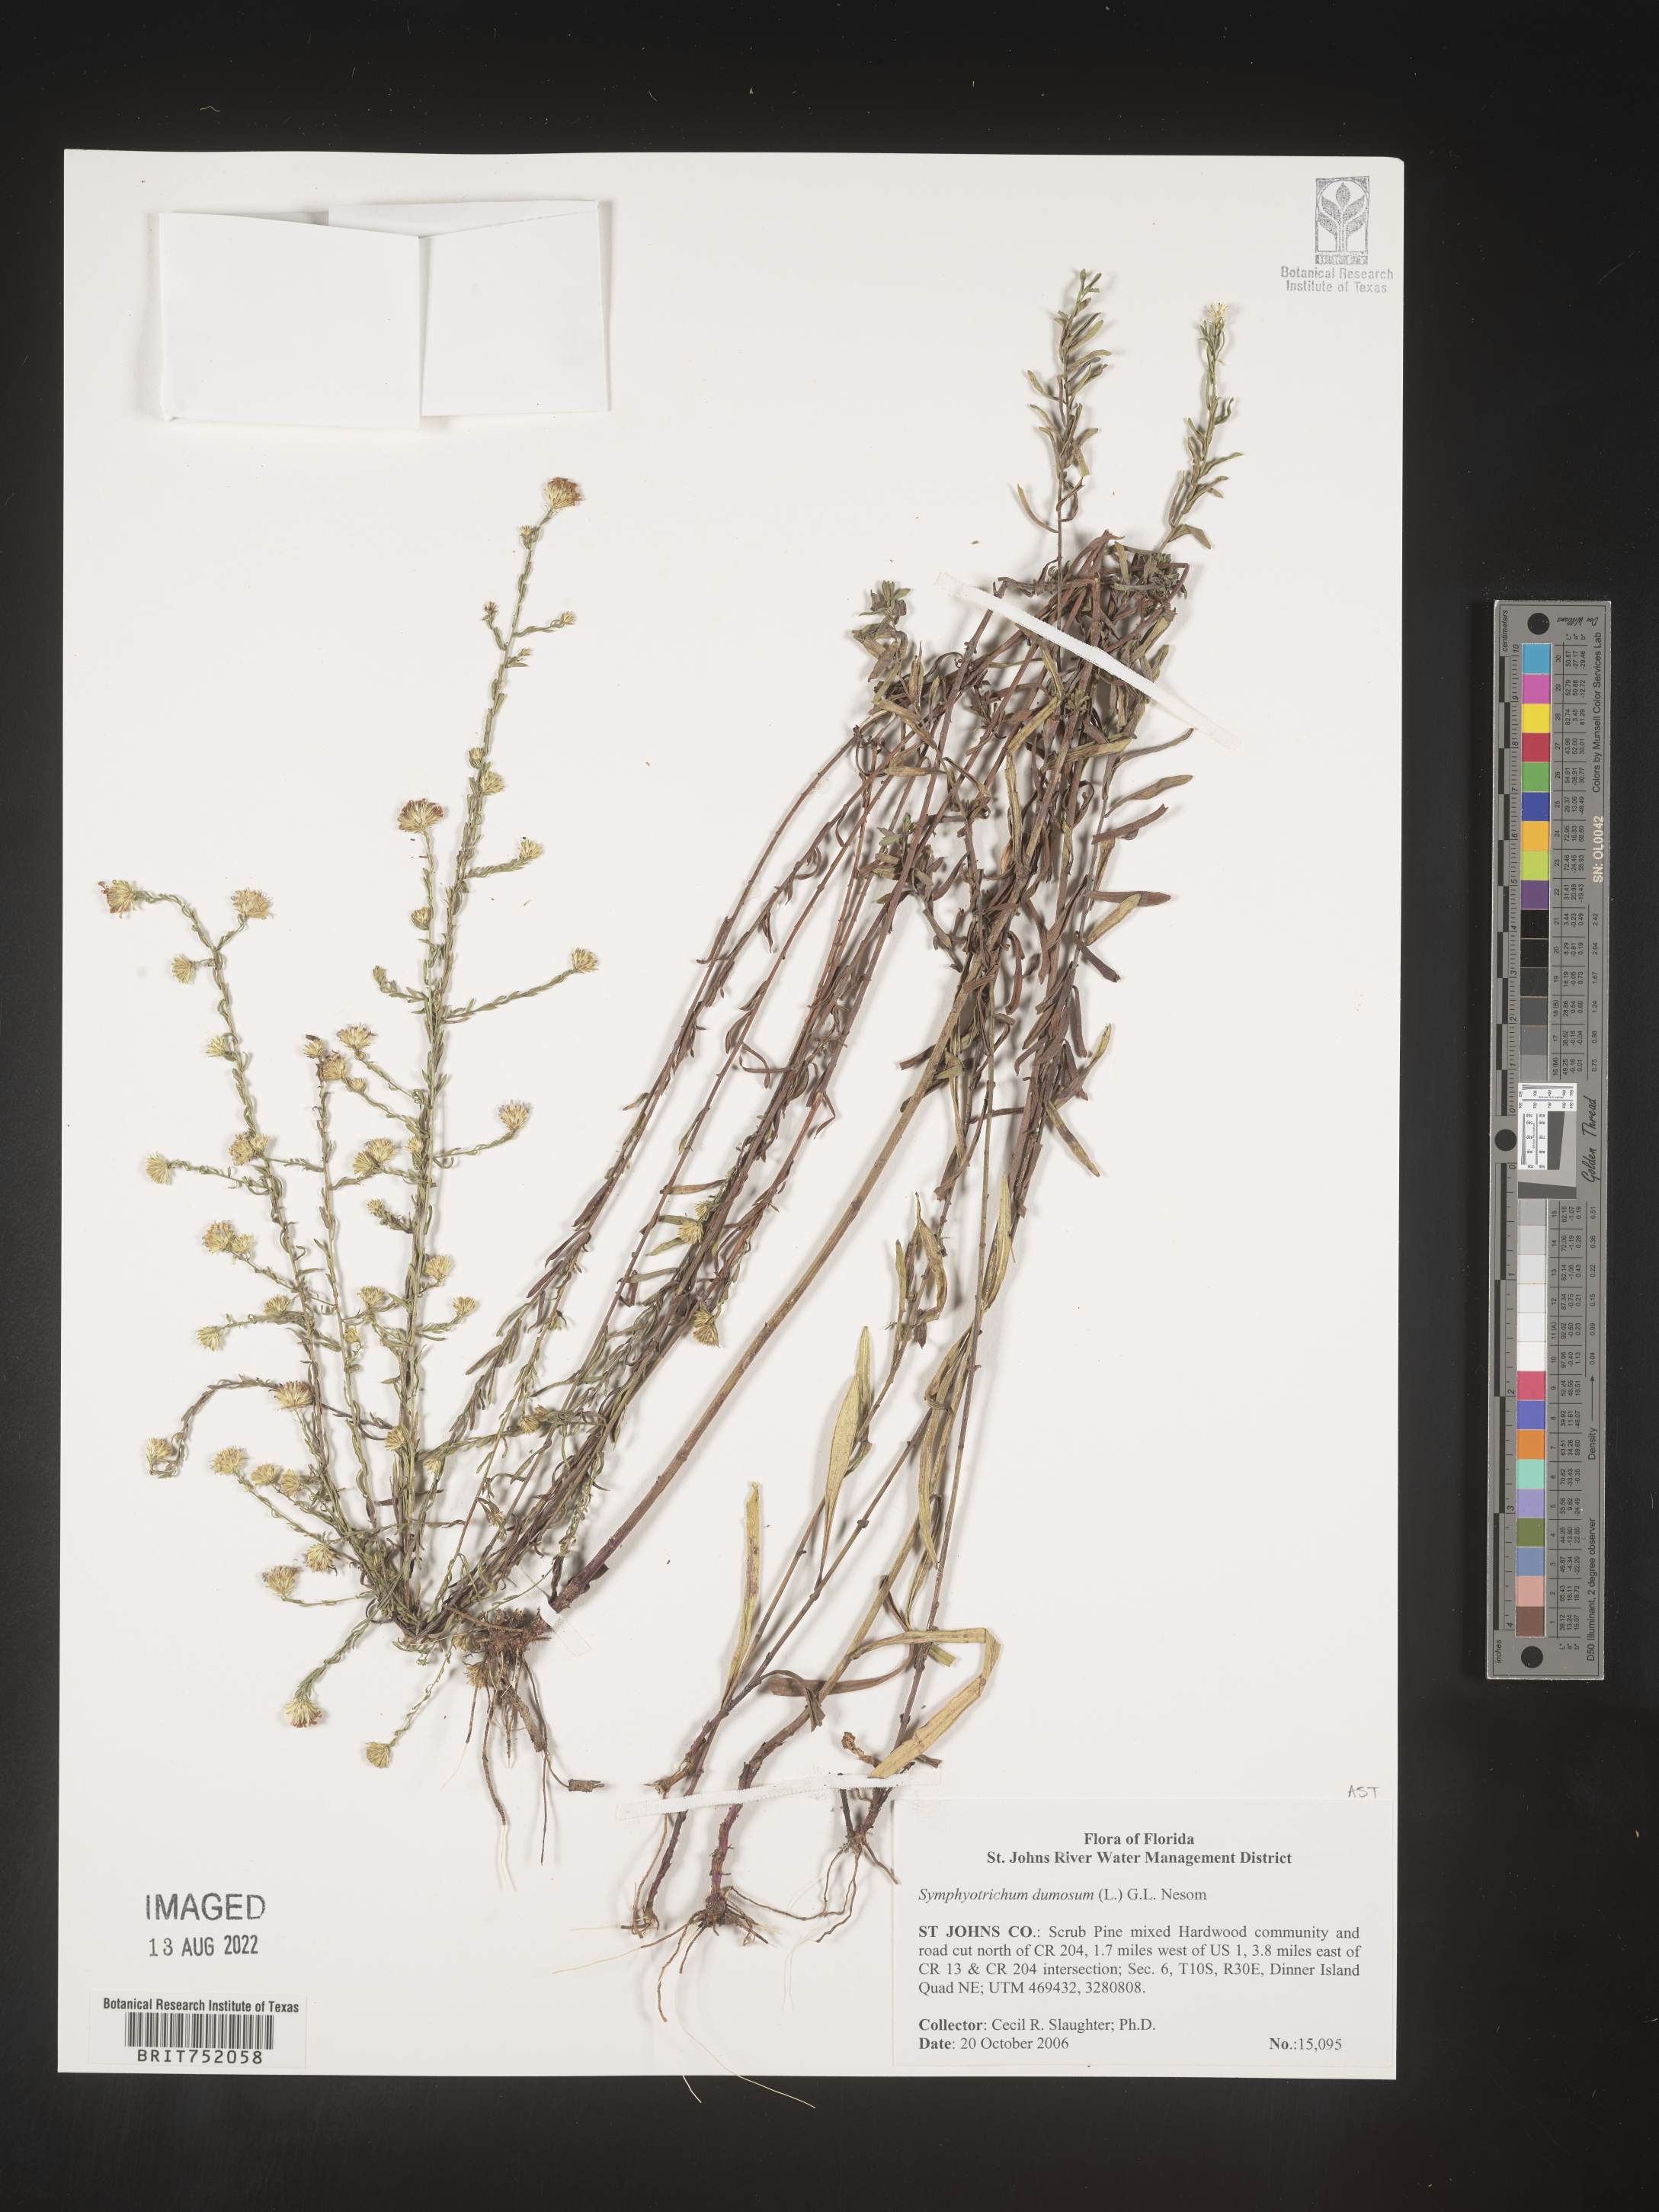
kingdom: Plantae
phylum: Tracheophyta
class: Magnoliopsida
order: Asterales
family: Asteraceae
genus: Symphyotrichum
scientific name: Symphyotrichum dumosum
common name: Bushy aster
